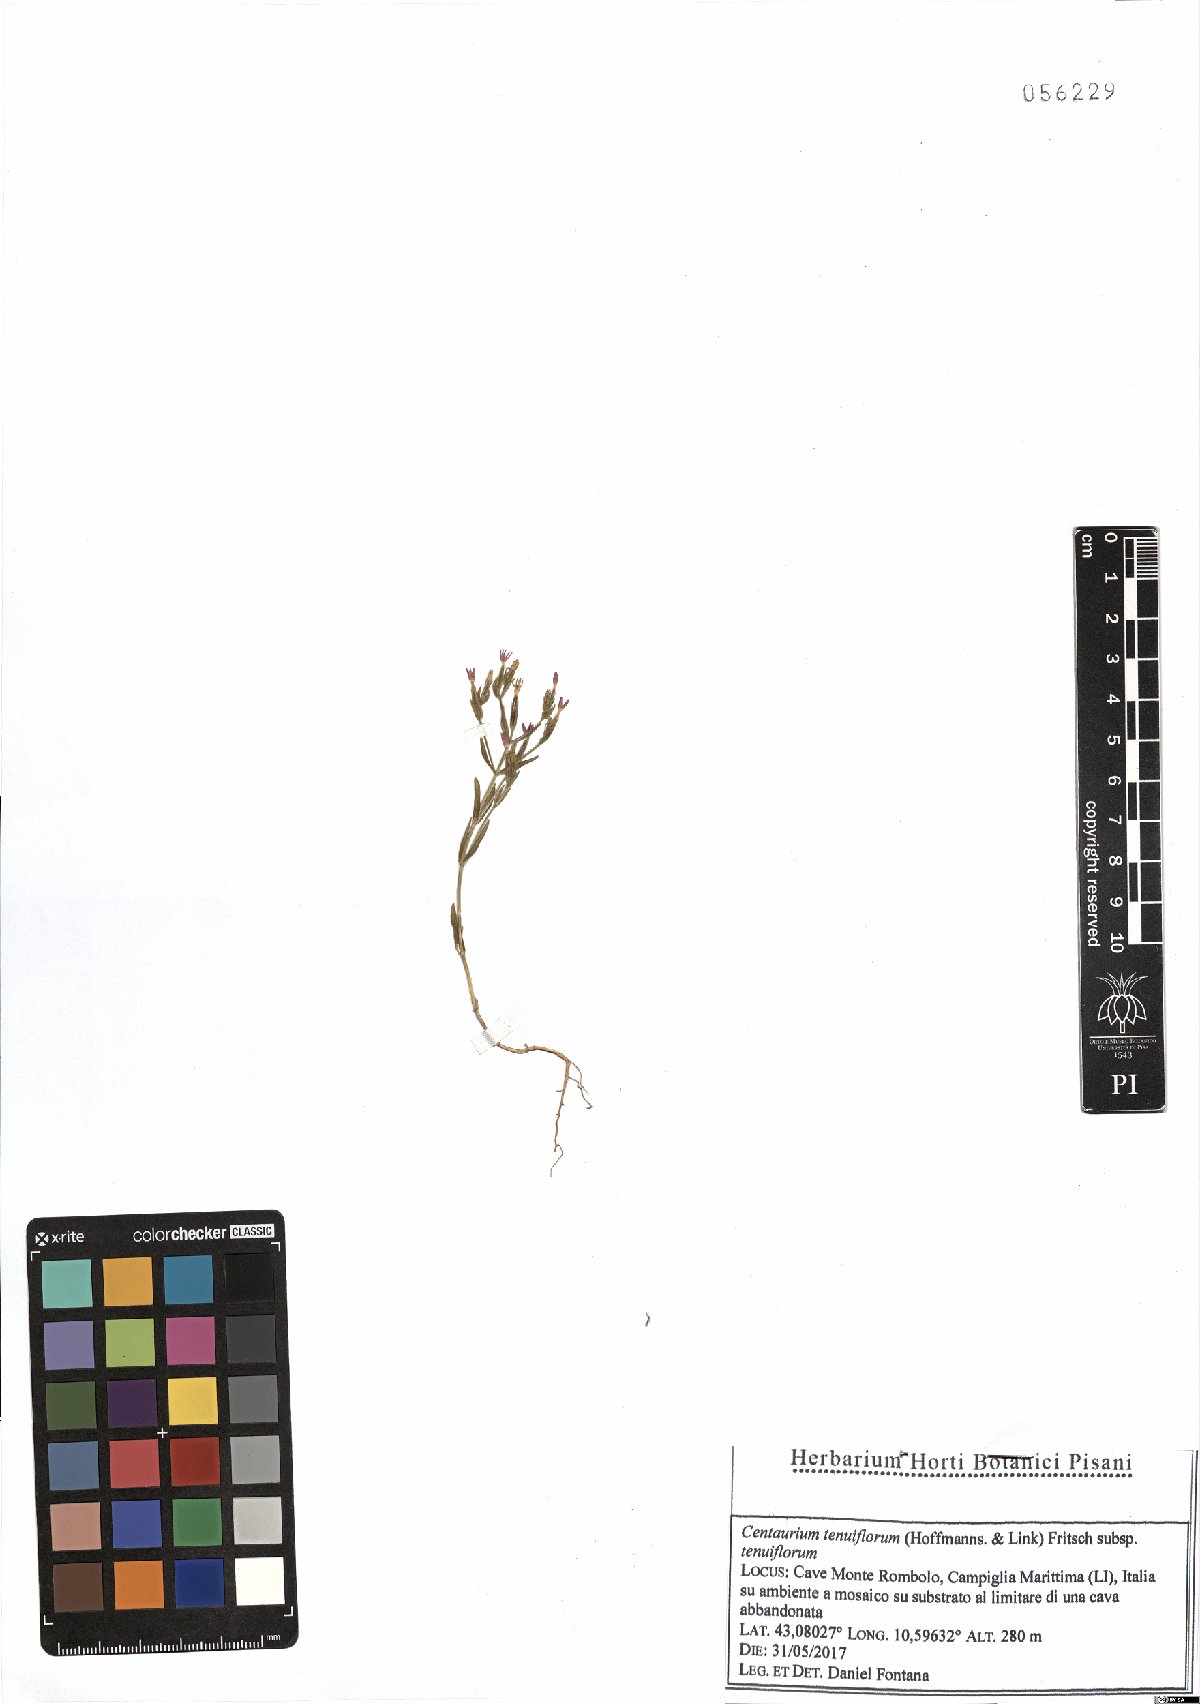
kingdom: Plantae
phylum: Tracheophyta
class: Magnoliopsida
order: Gentianales
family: Gentianaceae
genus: Centaurium
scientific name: Centaurium tenuiflorum
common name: Slender centaury
